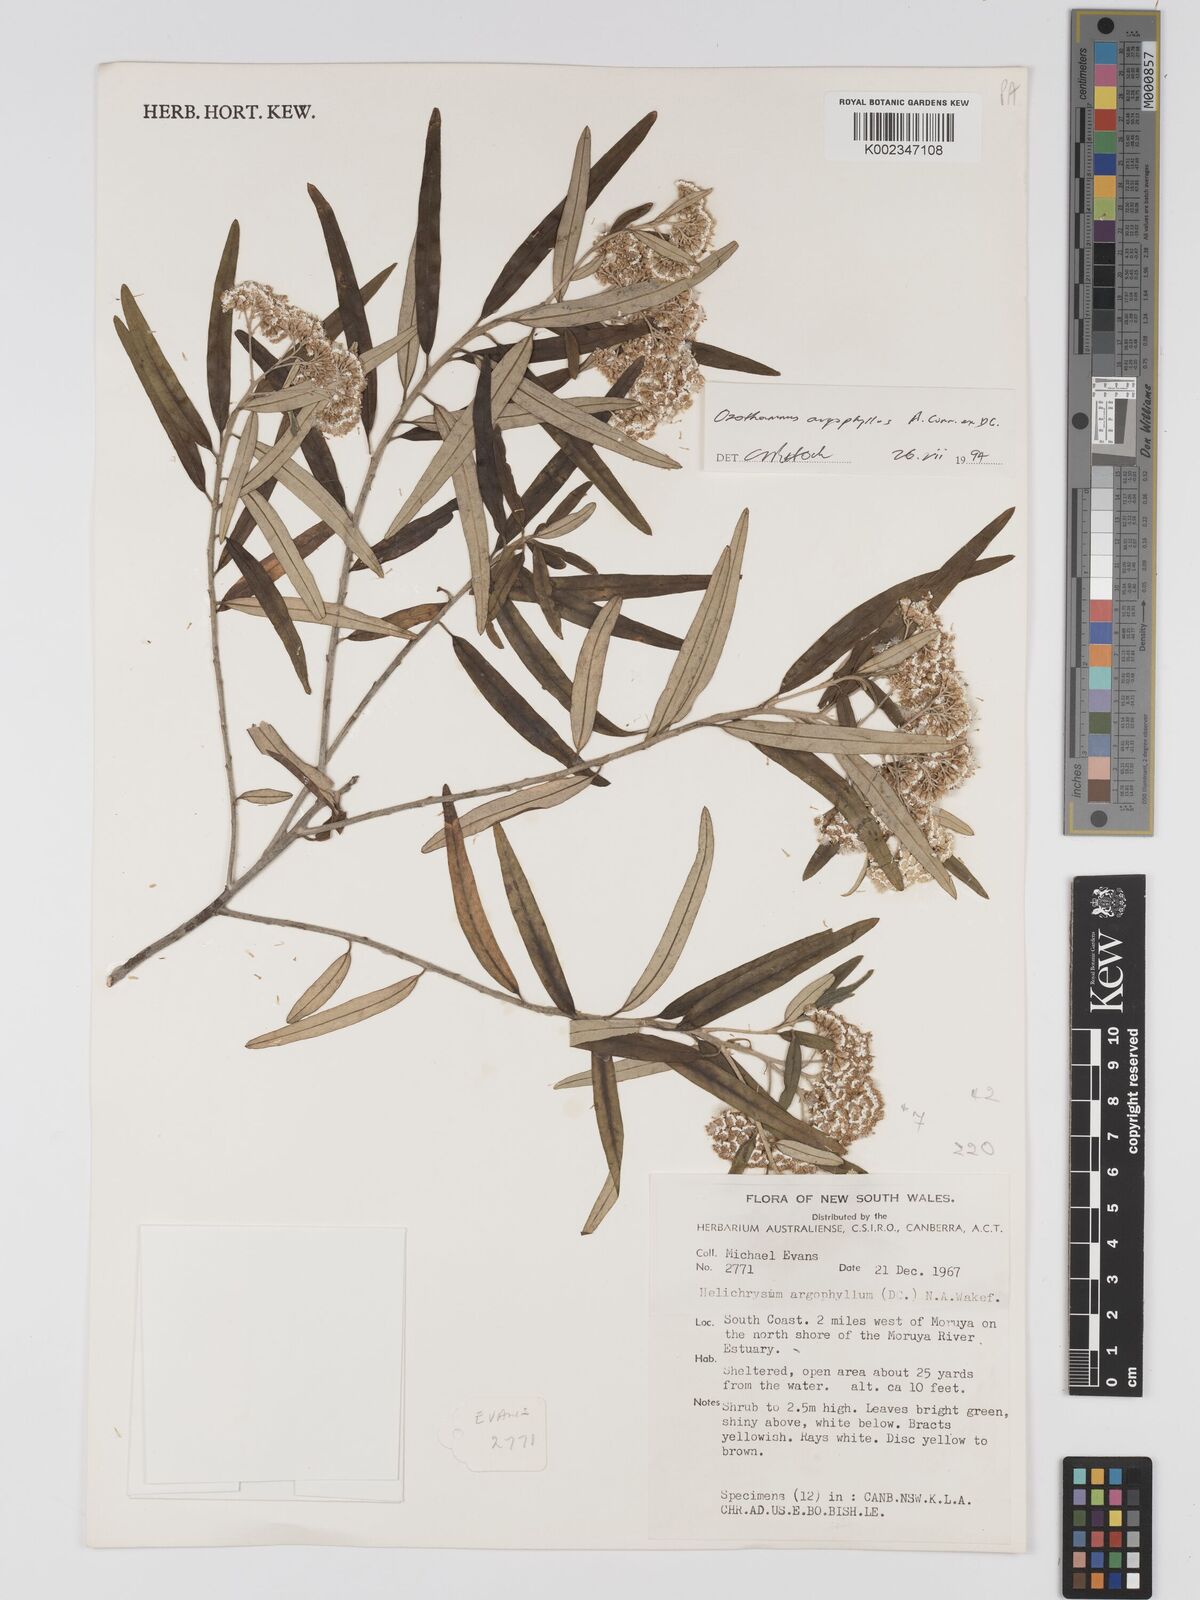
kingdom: Plantae
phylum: Tracheophyta
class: Magnoliopsida
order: Asterales
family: Asteraceae
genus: Ozothamnus
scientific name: Ozothamnus argophyllus
